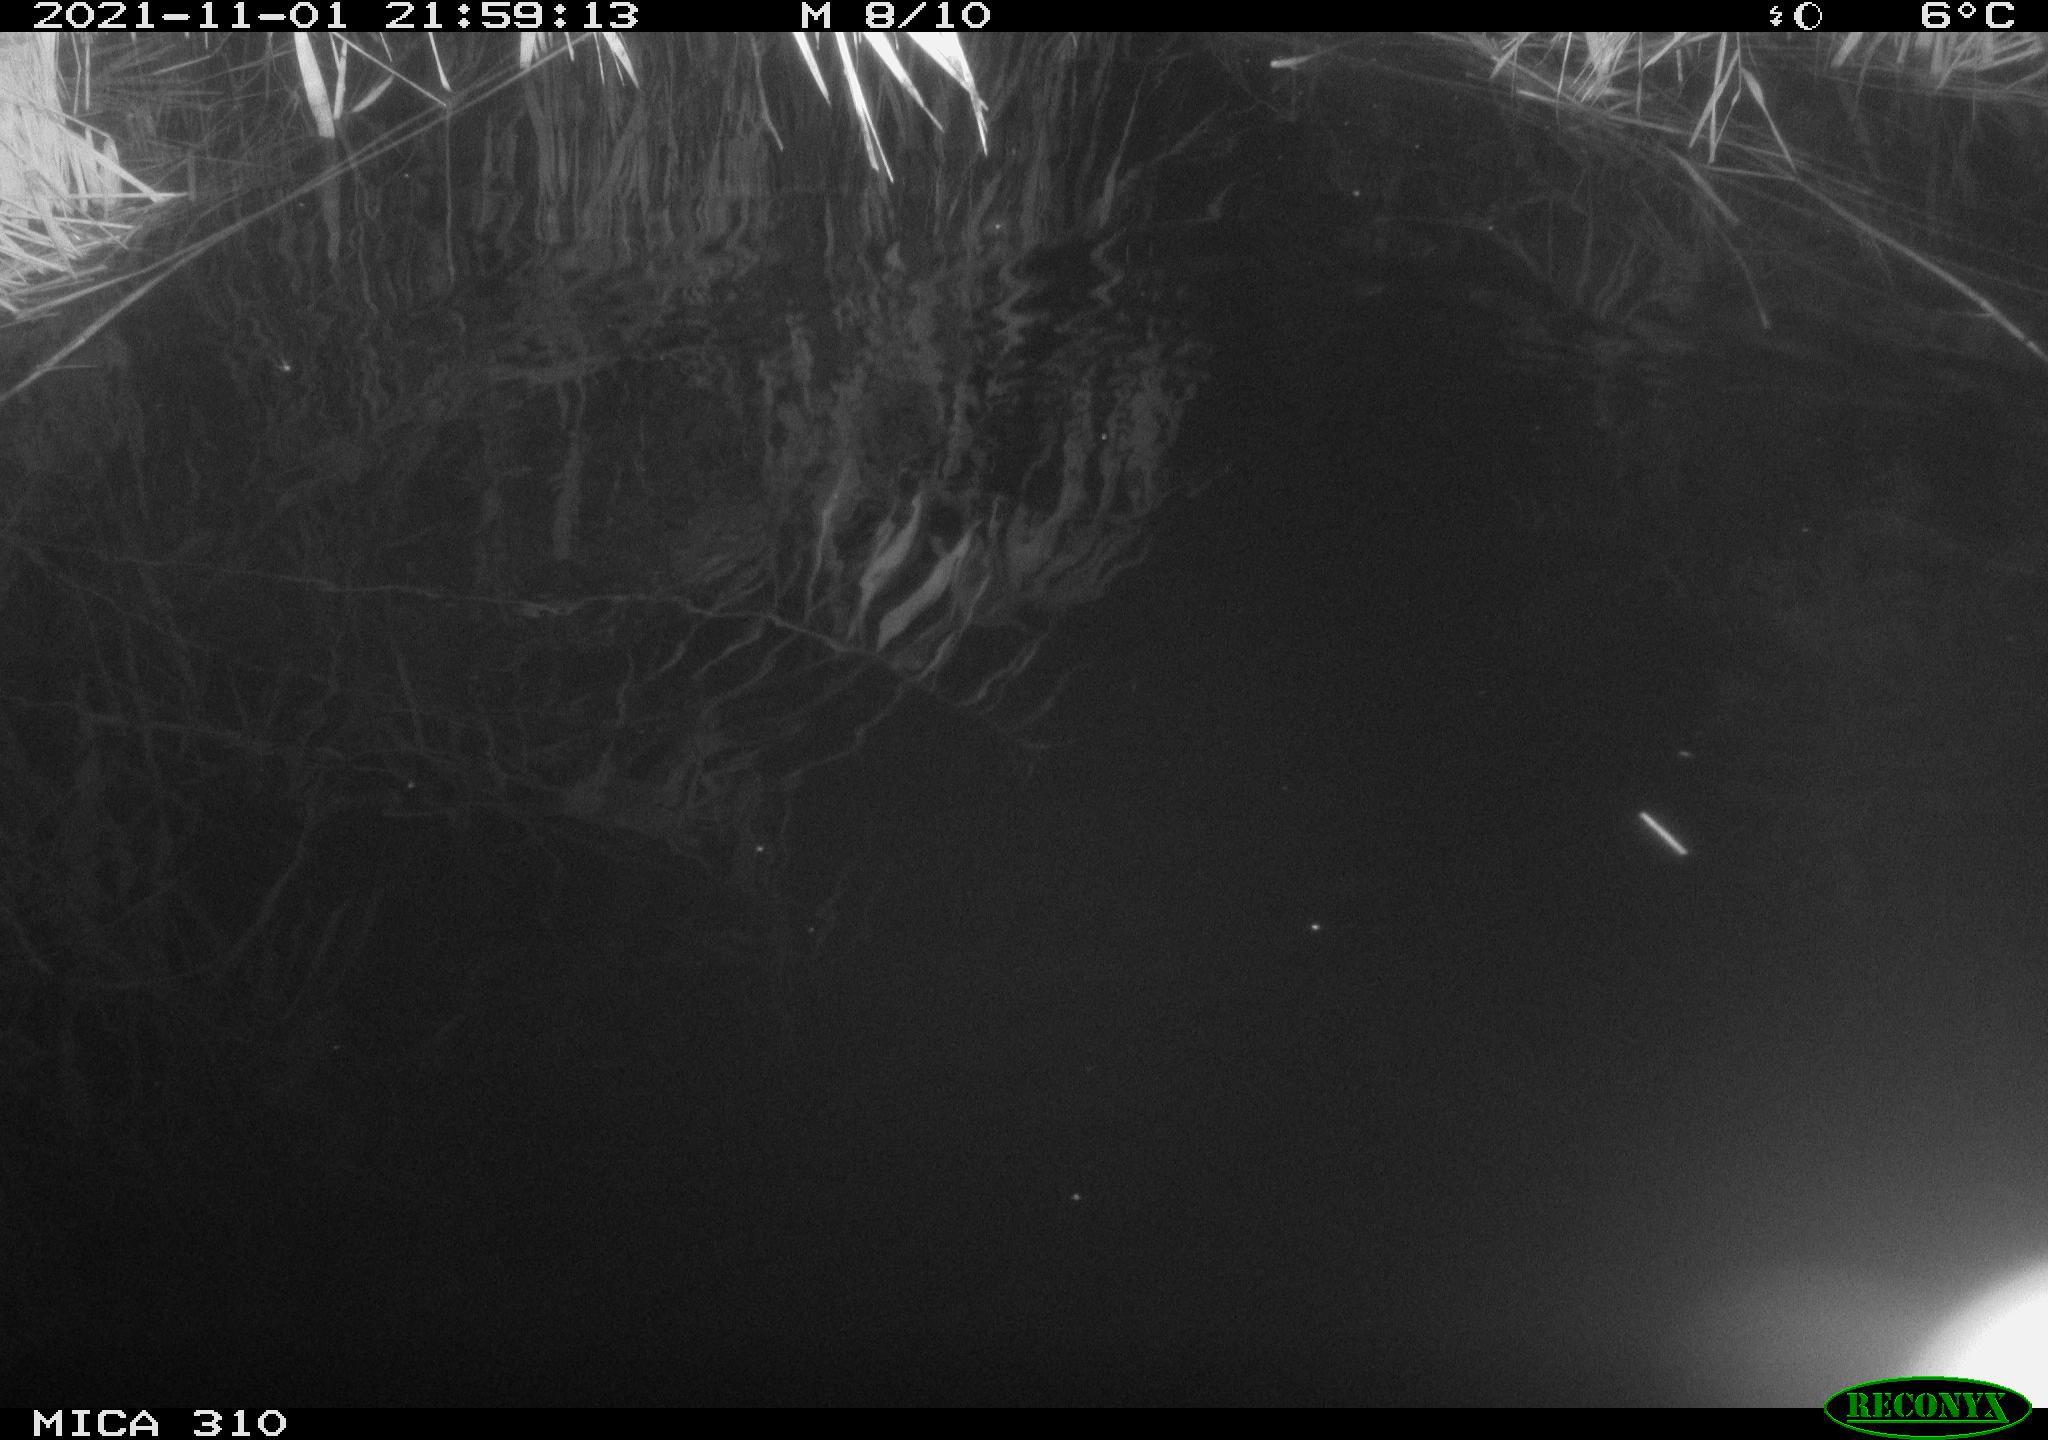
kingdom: Animalia
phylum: Chordata
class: Mammalia
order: Rodentia
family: Muridae
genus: Rattus
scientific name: Rattus norvegicus
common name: Brown rat
